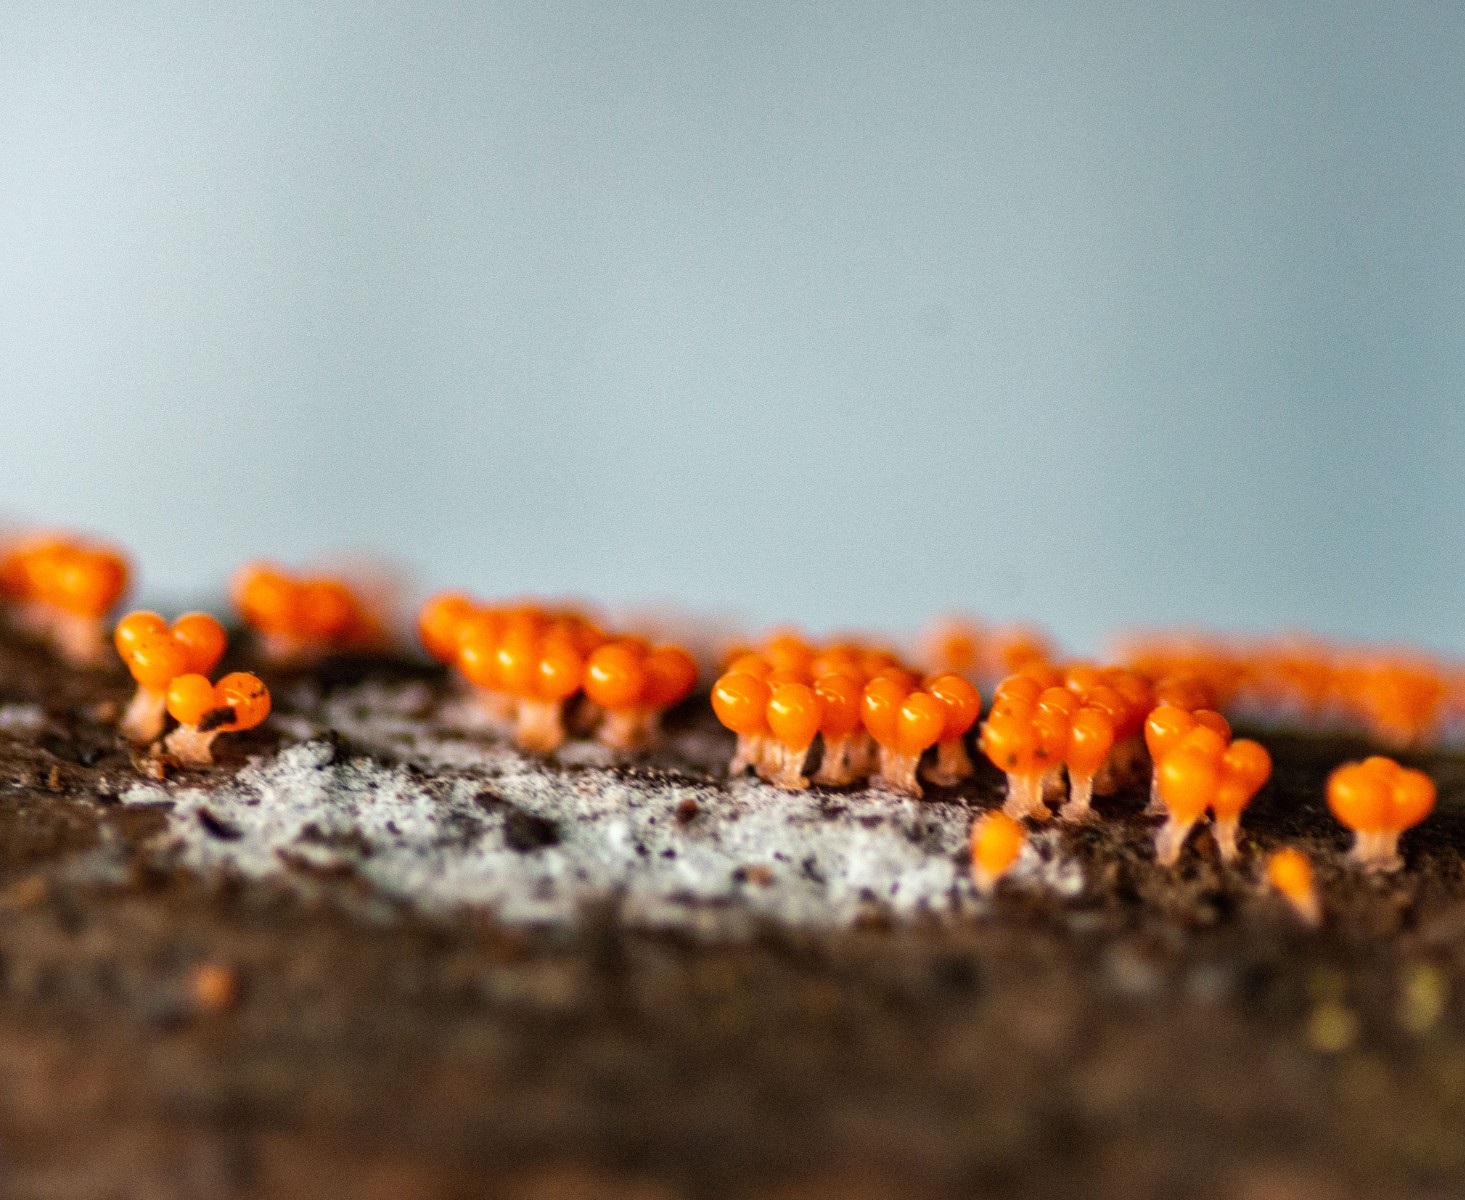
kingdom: Protozoa
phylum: Mycetozoa
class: Myxomycetes
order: Trichiales
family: Trichiaceae
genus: Trichia
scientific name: Trichia
